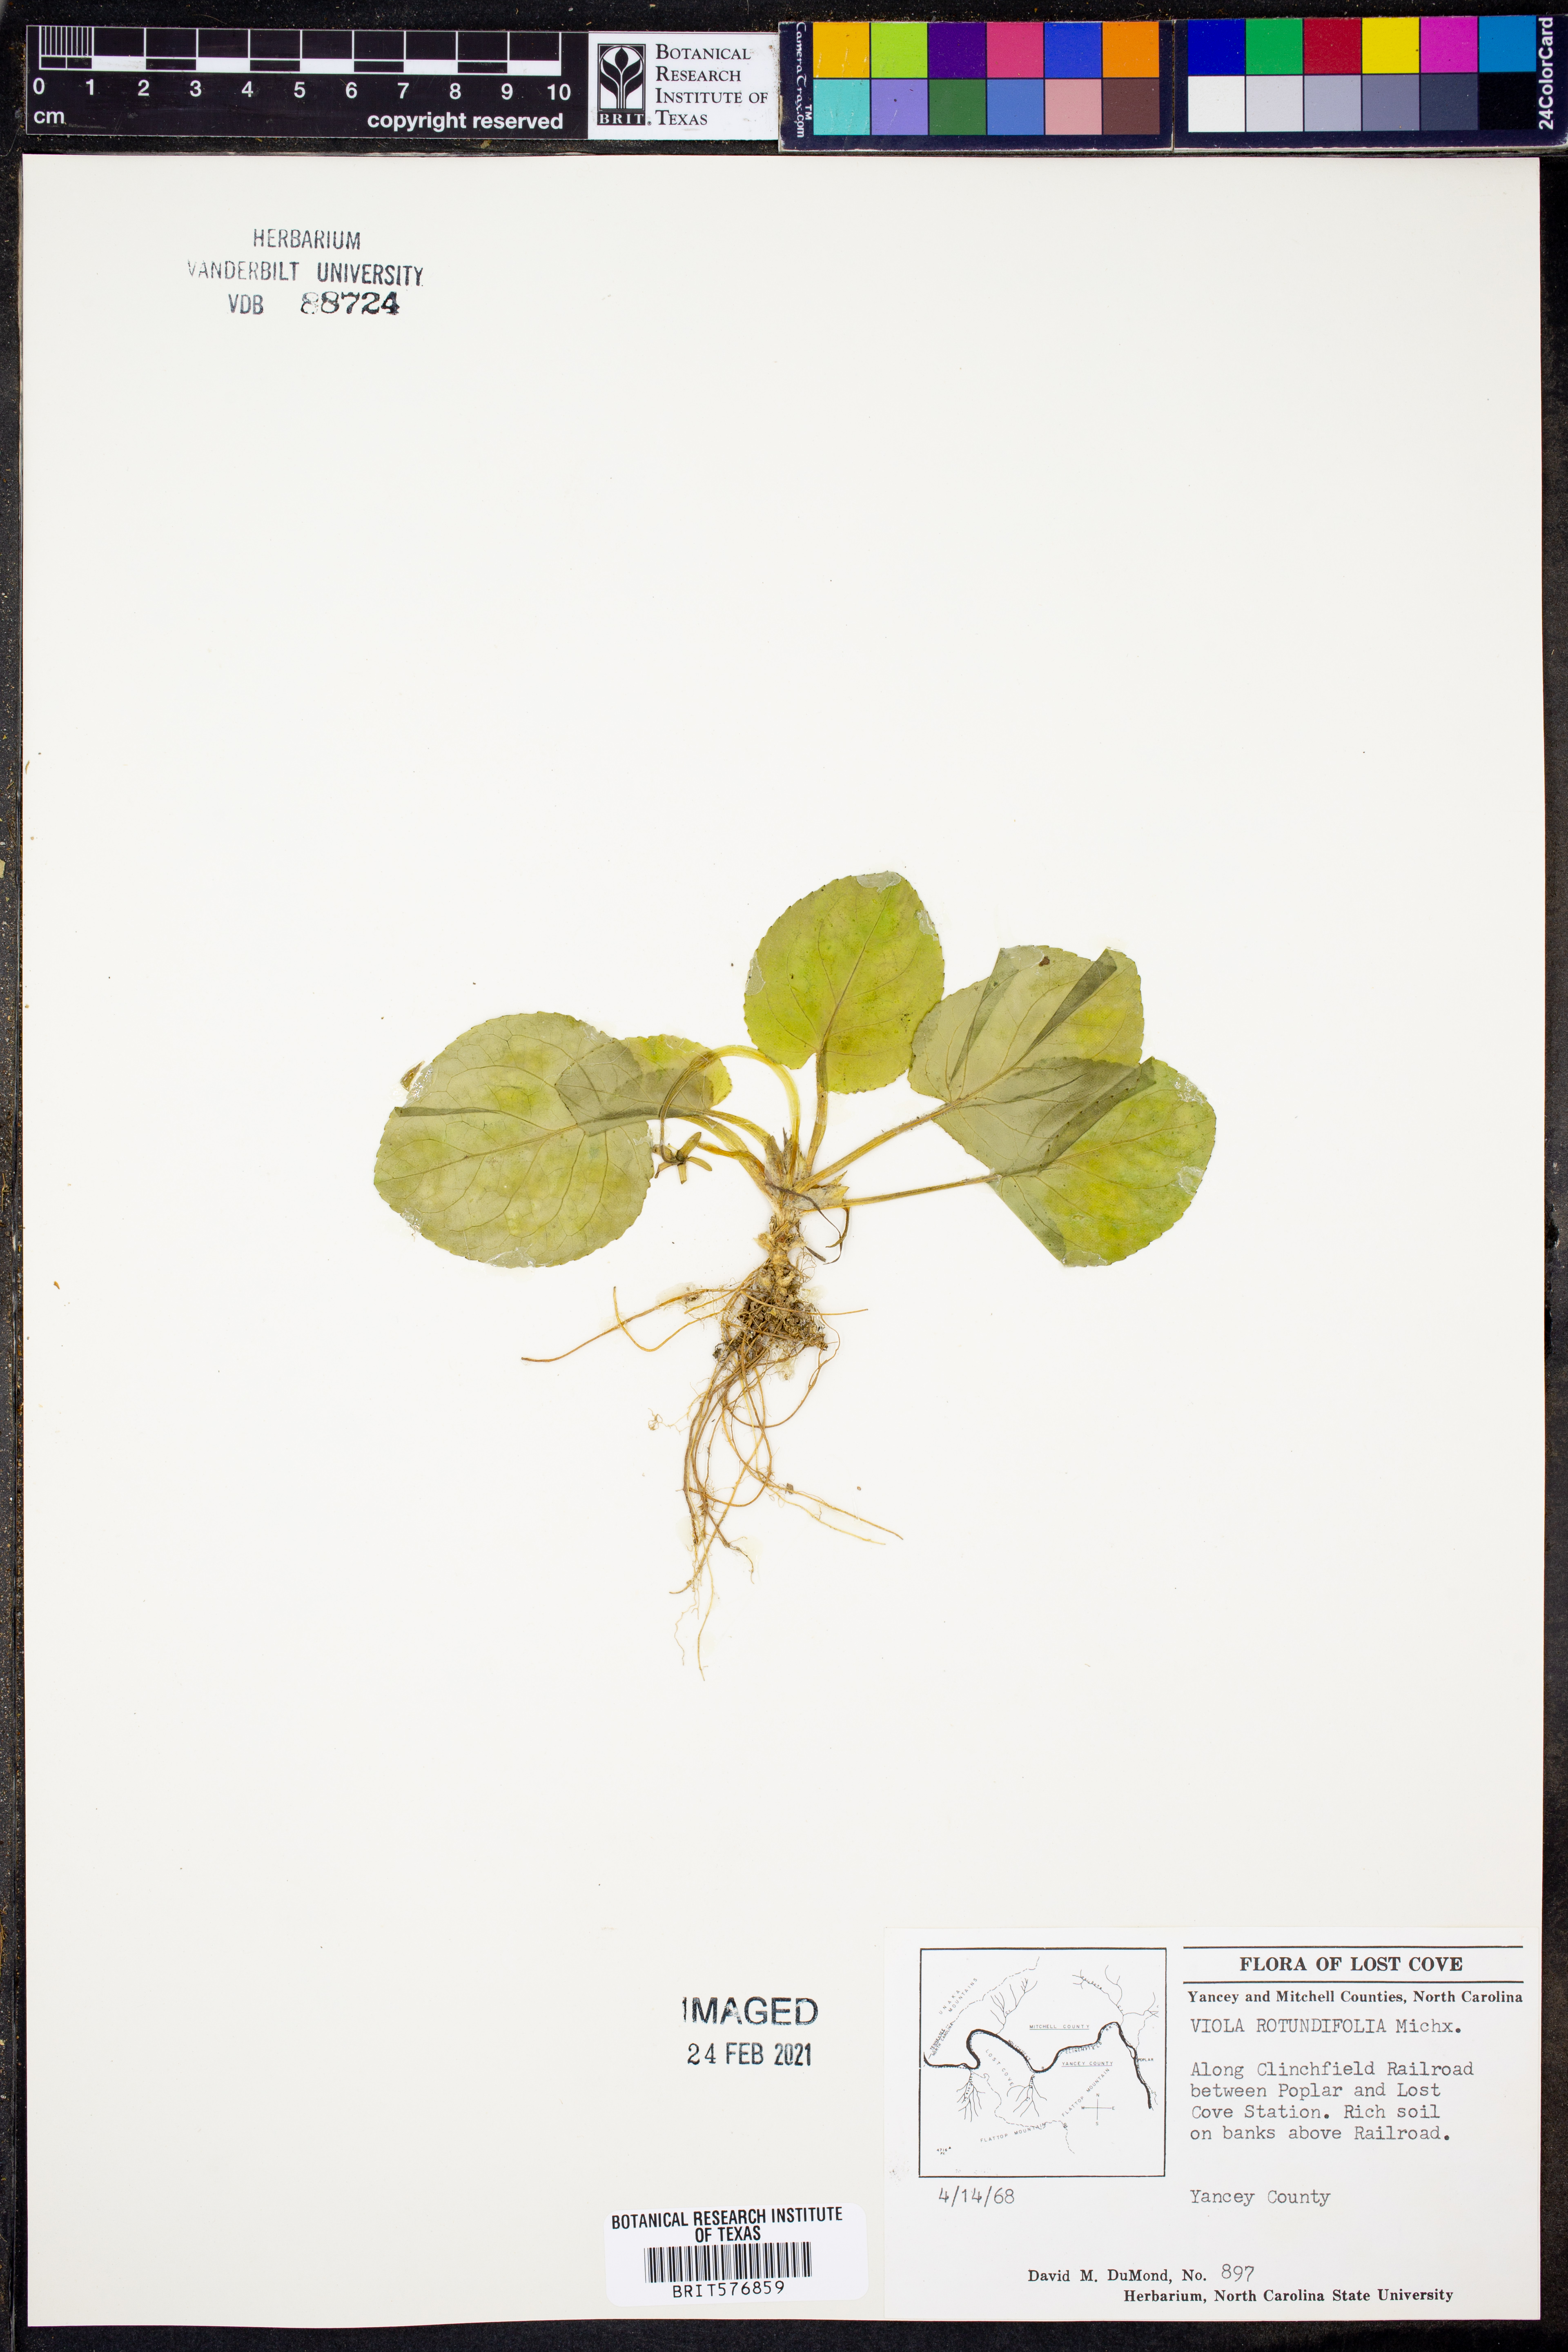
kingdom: Plantae
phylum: Tracheophyta
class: Magnoliopsida
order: Malpighiales
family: Violaceae
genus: Viola
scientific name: Viola rotundifolia
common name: Early yellow violet
